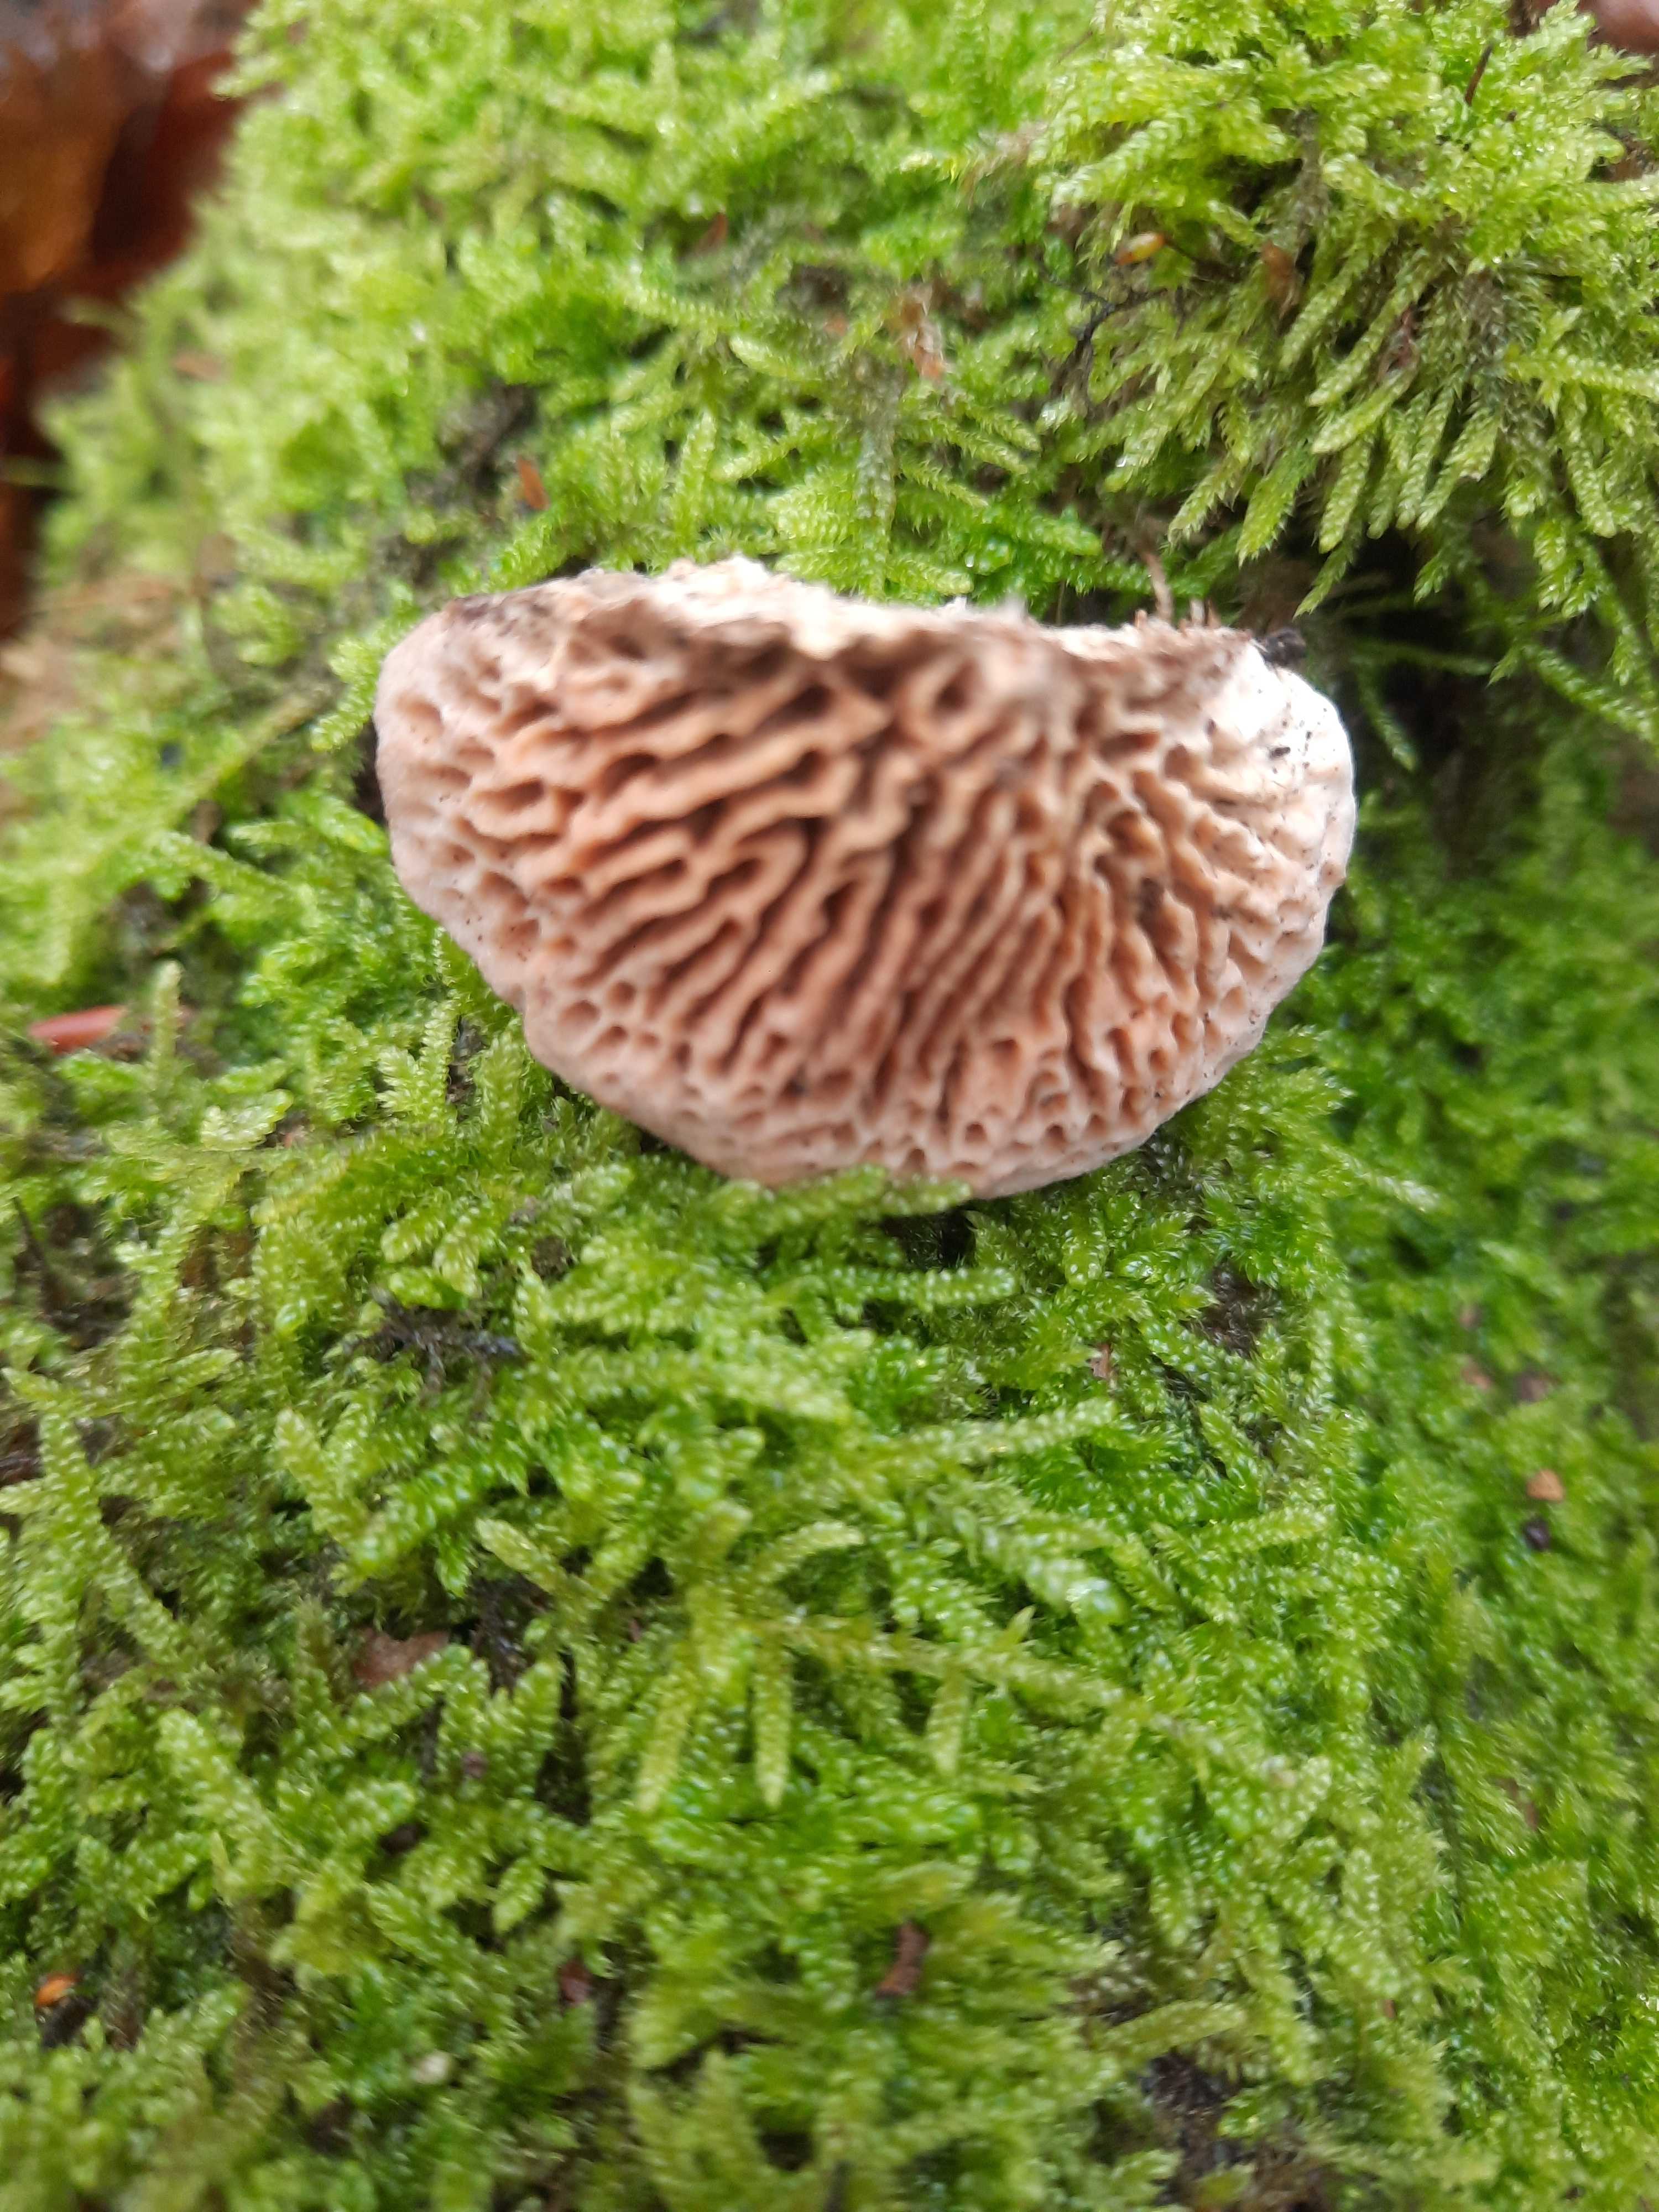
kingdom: Fungi
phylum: Basidiomycota
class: Agaricomycetes
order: Polyporales
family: Fomitopsidaceae
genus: Daedalea
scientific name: Daedalea quercina
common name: ege-labyrintsvamp
